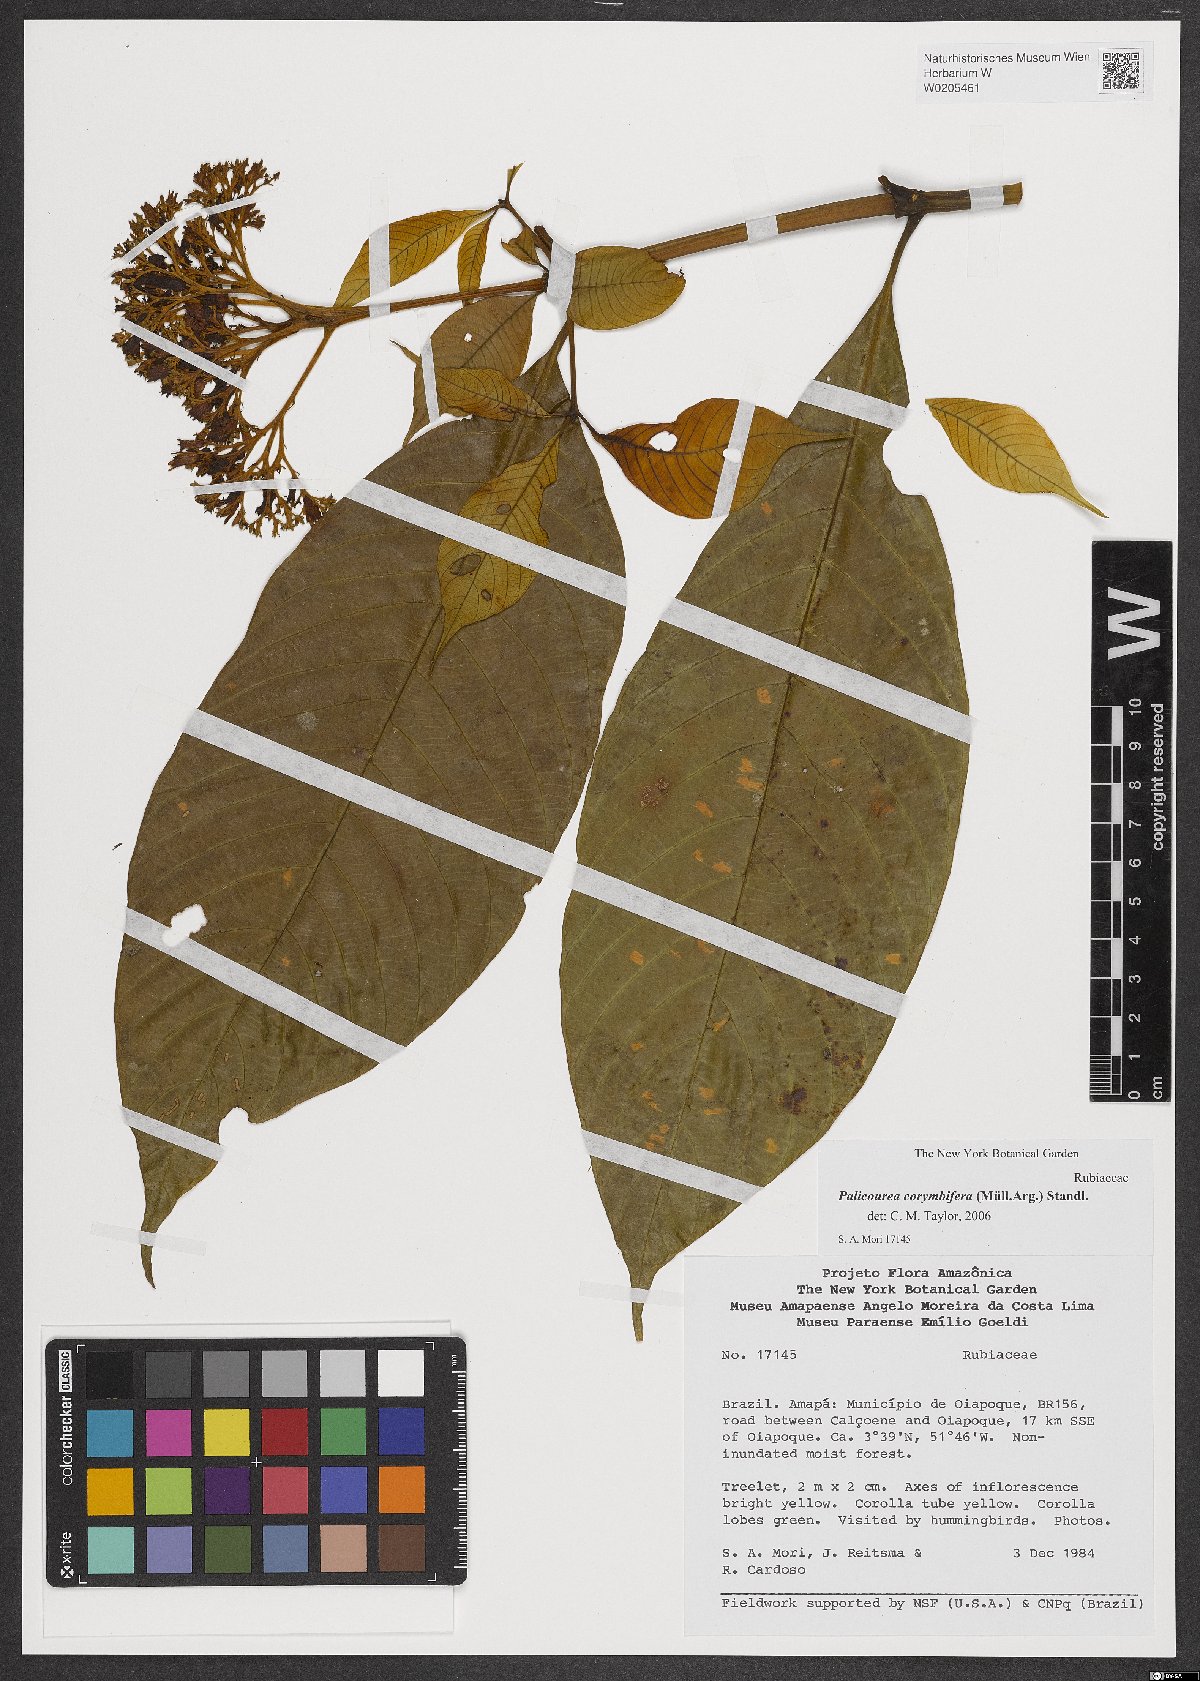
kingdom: Plantae
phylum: Tracheophyta
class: Magnoliopsida
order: Gentianales
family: Rubiaceae
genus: Palicourea
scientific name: Palicourea corymbifera
